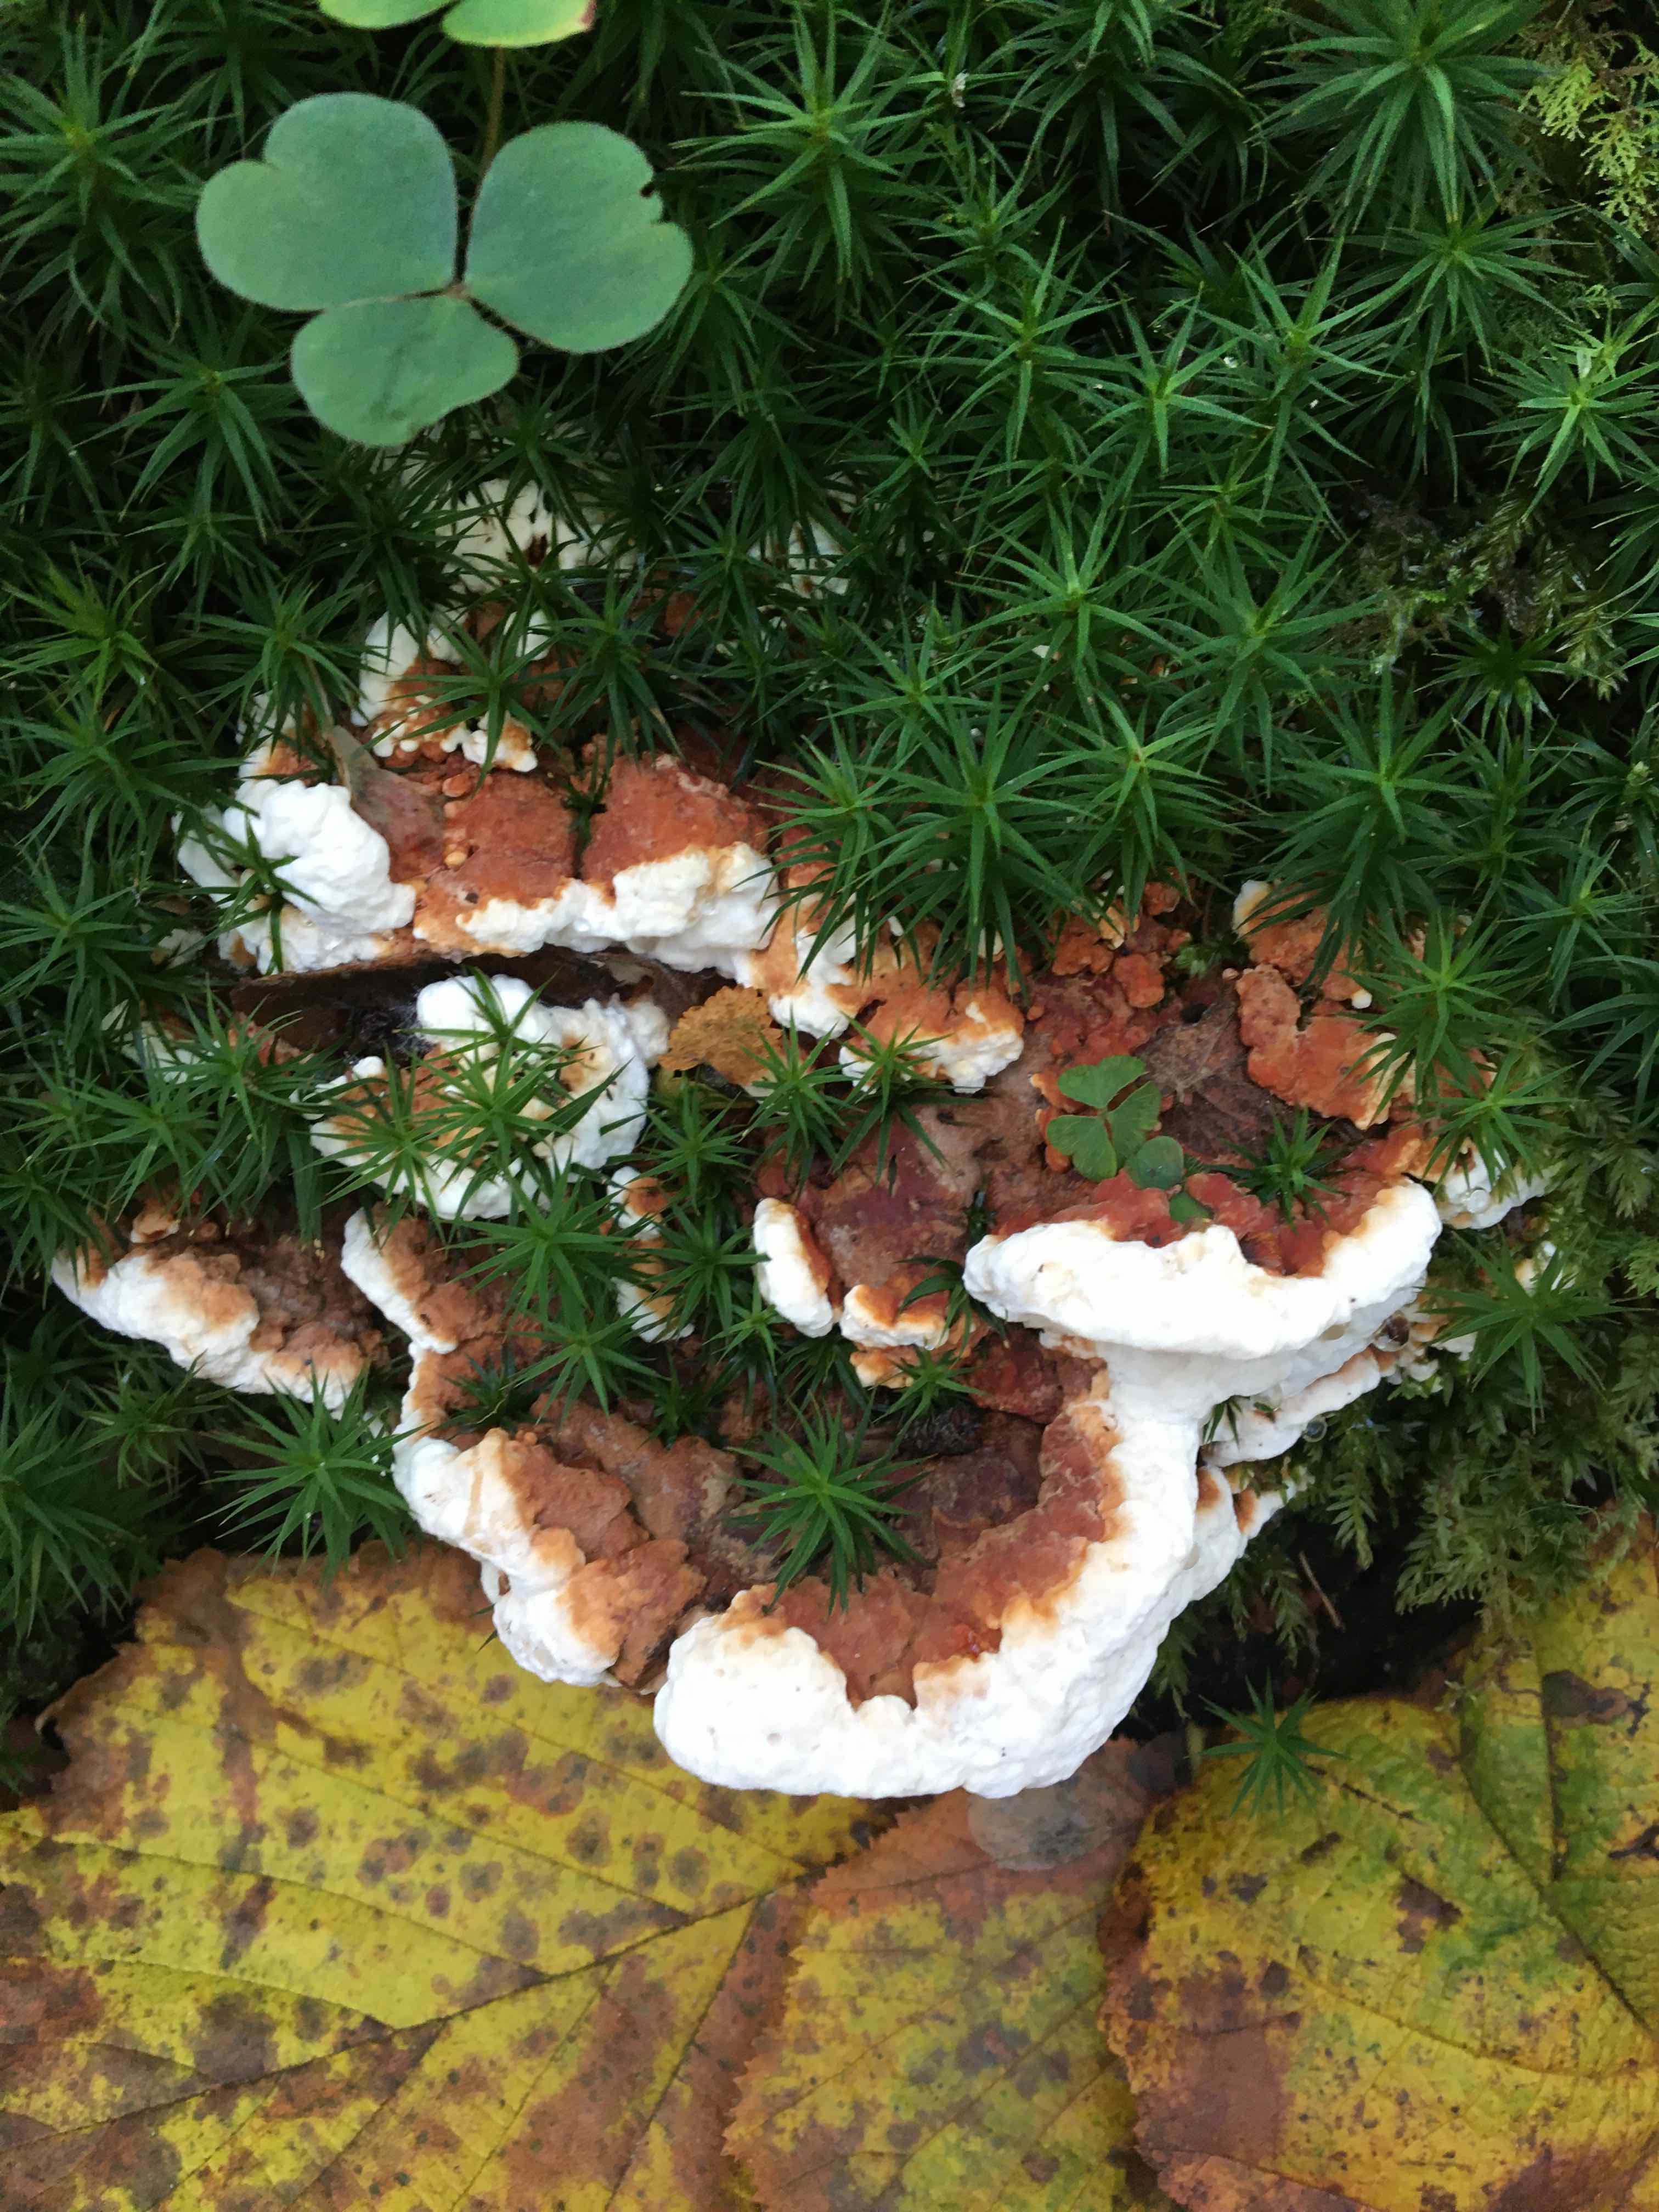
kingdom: Fungi
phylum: Basidiomycota
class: Agaricomycetes
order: Russulales
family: Bondarzewiaceae
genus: Heterobasidion
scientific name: Heterobasidion annosum
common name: almindelig rodfordærver
